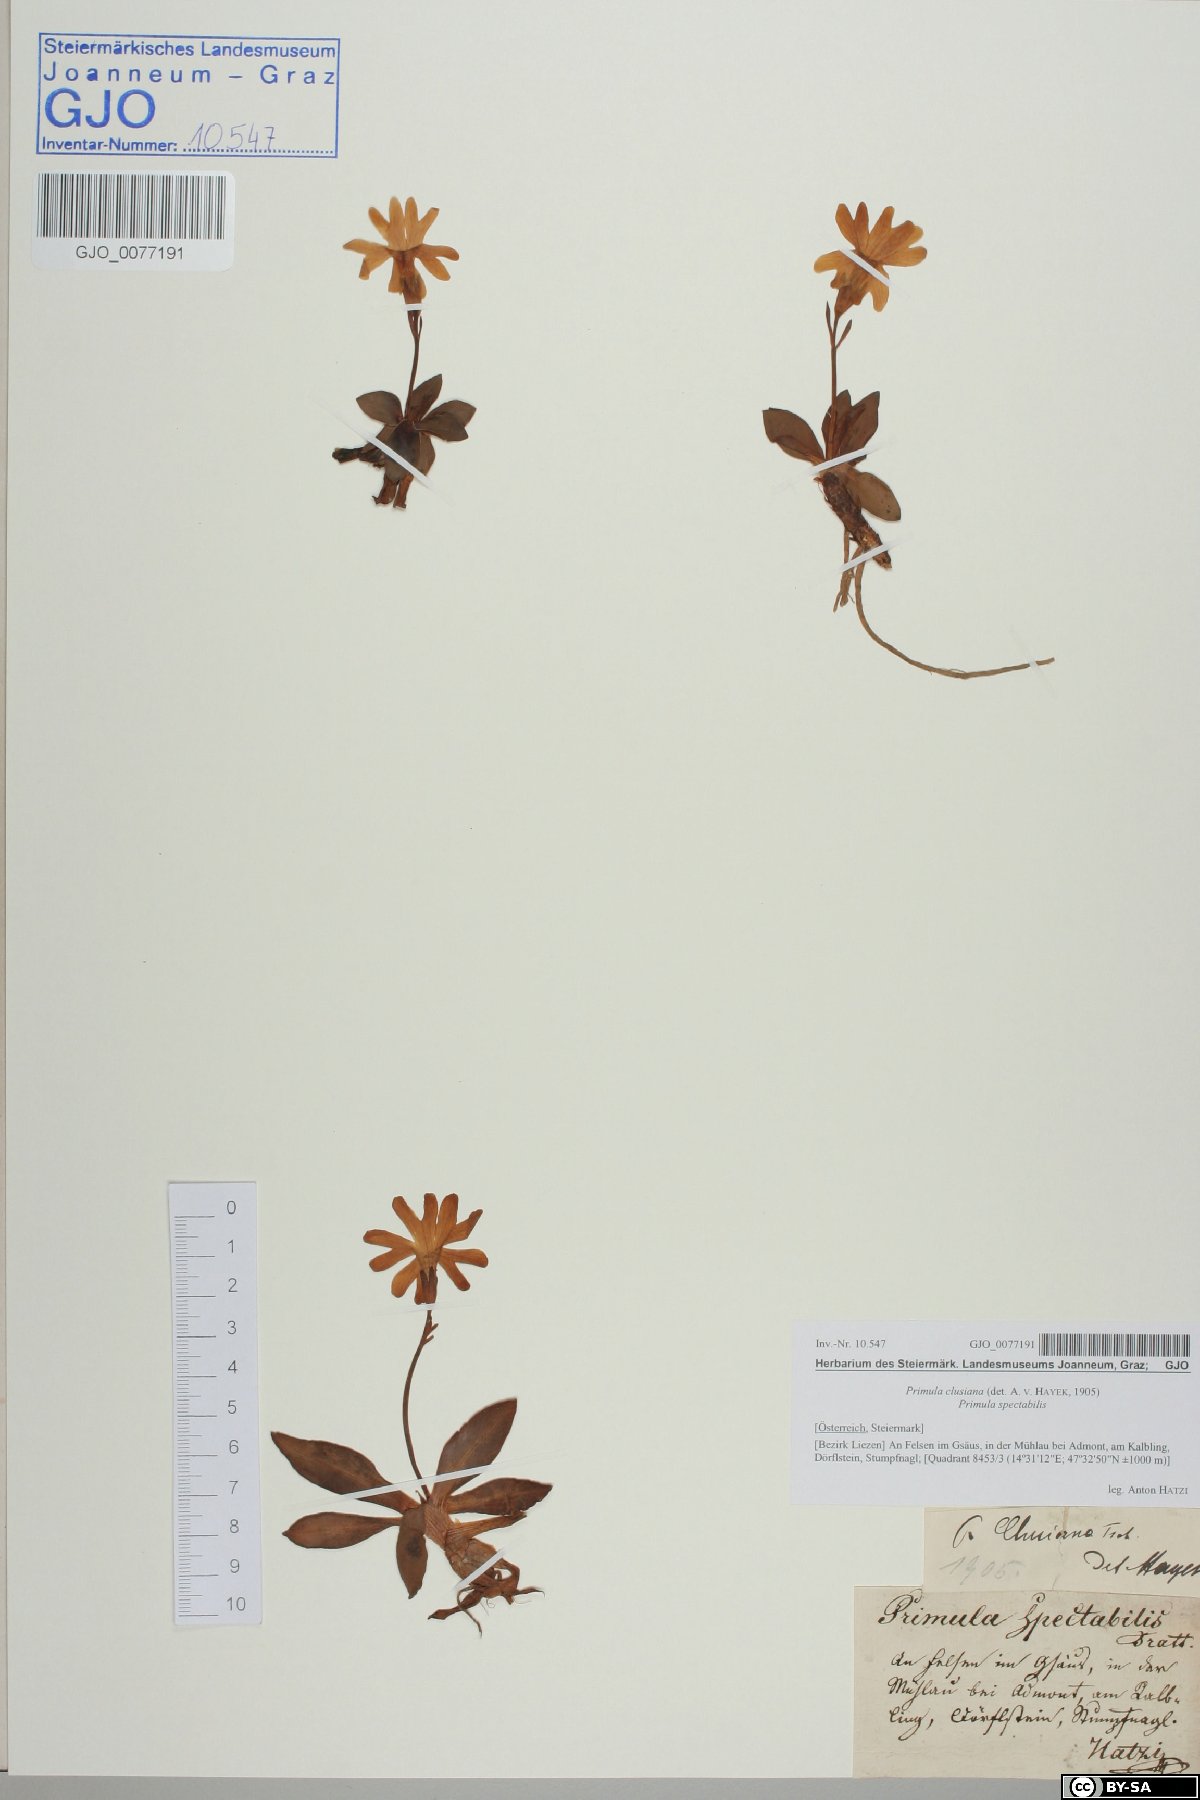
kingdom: Plantae
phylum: Tracheophyta
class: Magnoliopsida
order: Ericales
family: Primulaceae
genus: Primula
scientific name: Primula clusiana
